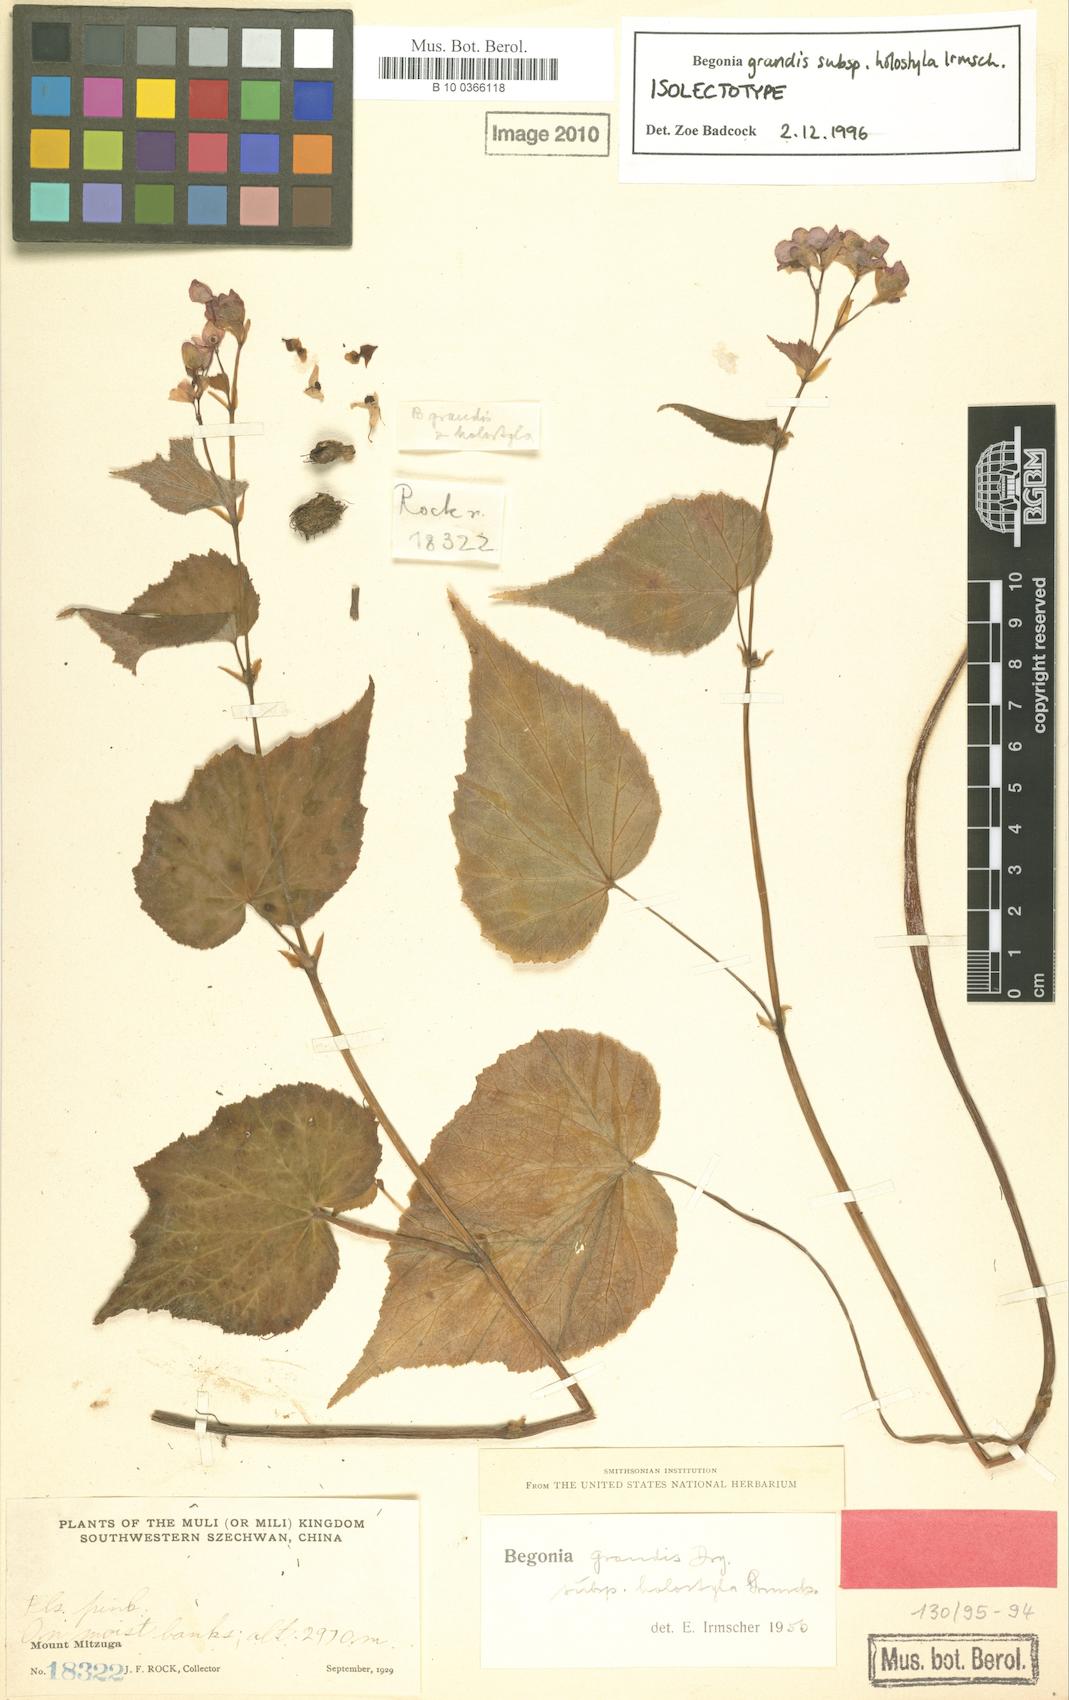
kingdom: Plantae
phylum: Tracheophyta
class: Magnoliopsida
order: Cucurbitales
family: Begoniaceae
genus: Begonia
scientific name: Begonia grandis
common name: Hardy begonia
